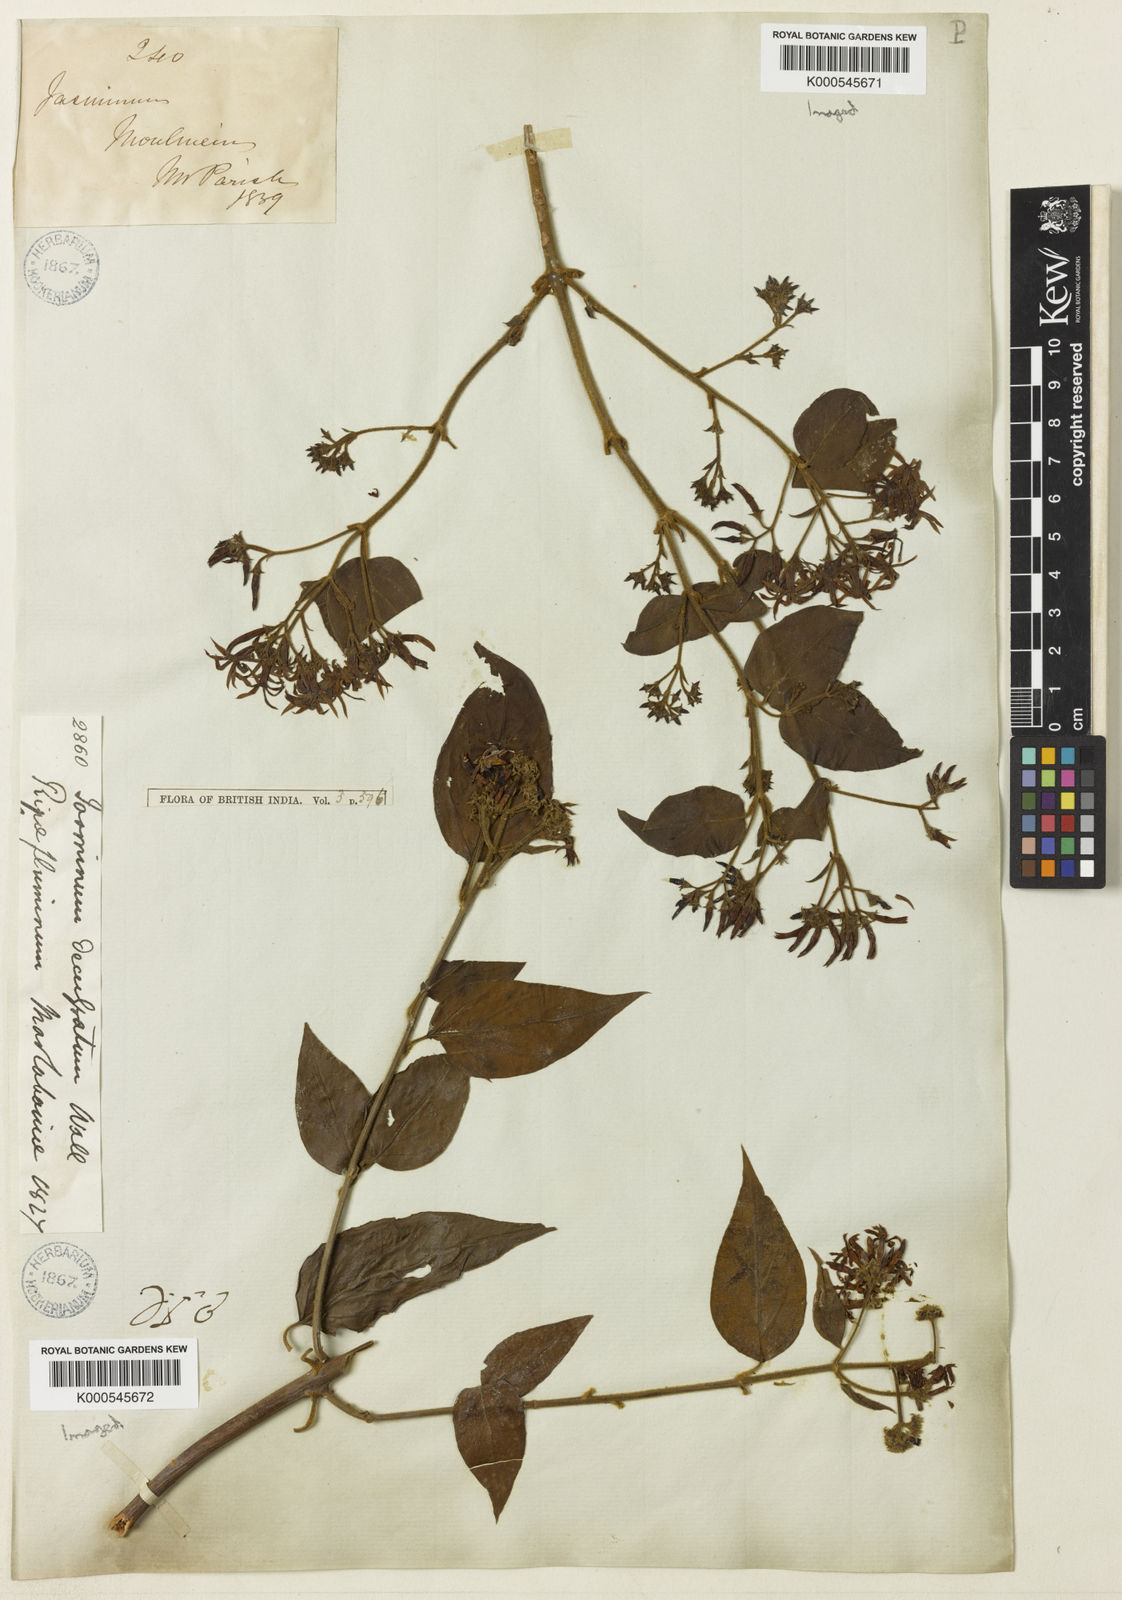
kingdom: Plantae
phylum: Tracheophyta
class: Magnoliopsida
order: Lamiales
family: Oleaceae
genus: Jasminum
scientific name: Jasminum scandens
